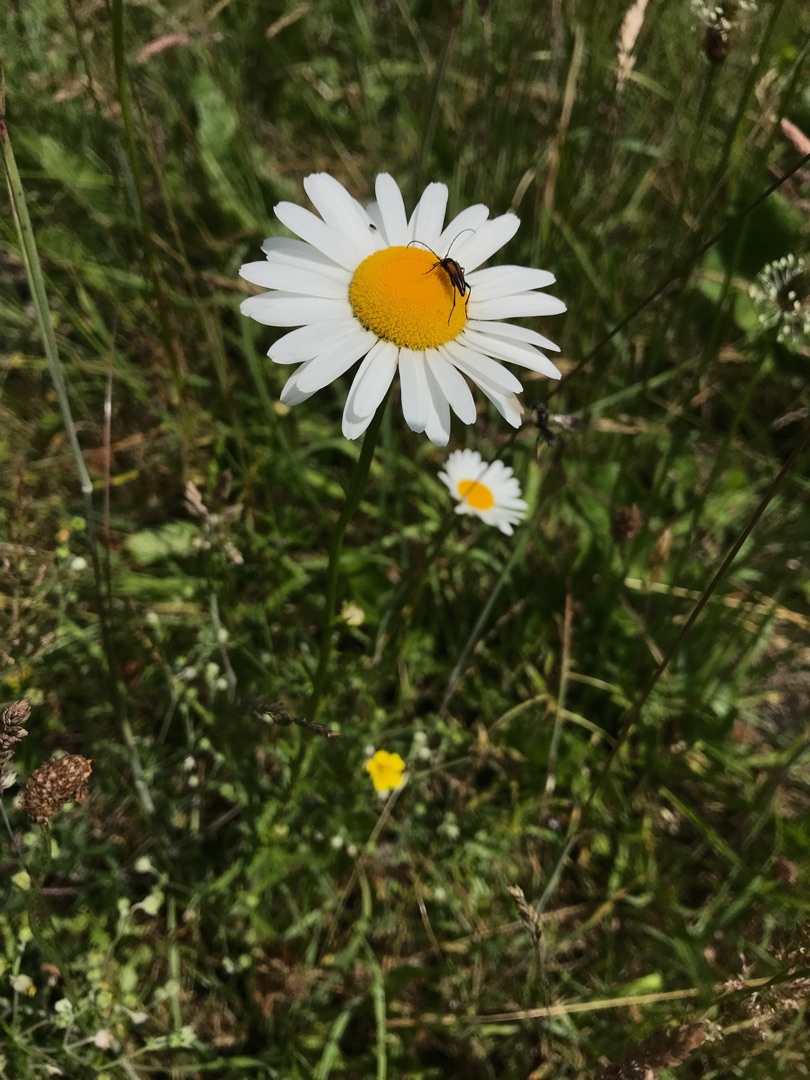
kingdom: Plantae
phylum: Tracheophyta
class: Magnoliopsida
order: Asterales
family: Asteraceae
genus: Leucanthemum
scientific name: Leucanthemum vulgare
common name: Hvid okseøje
